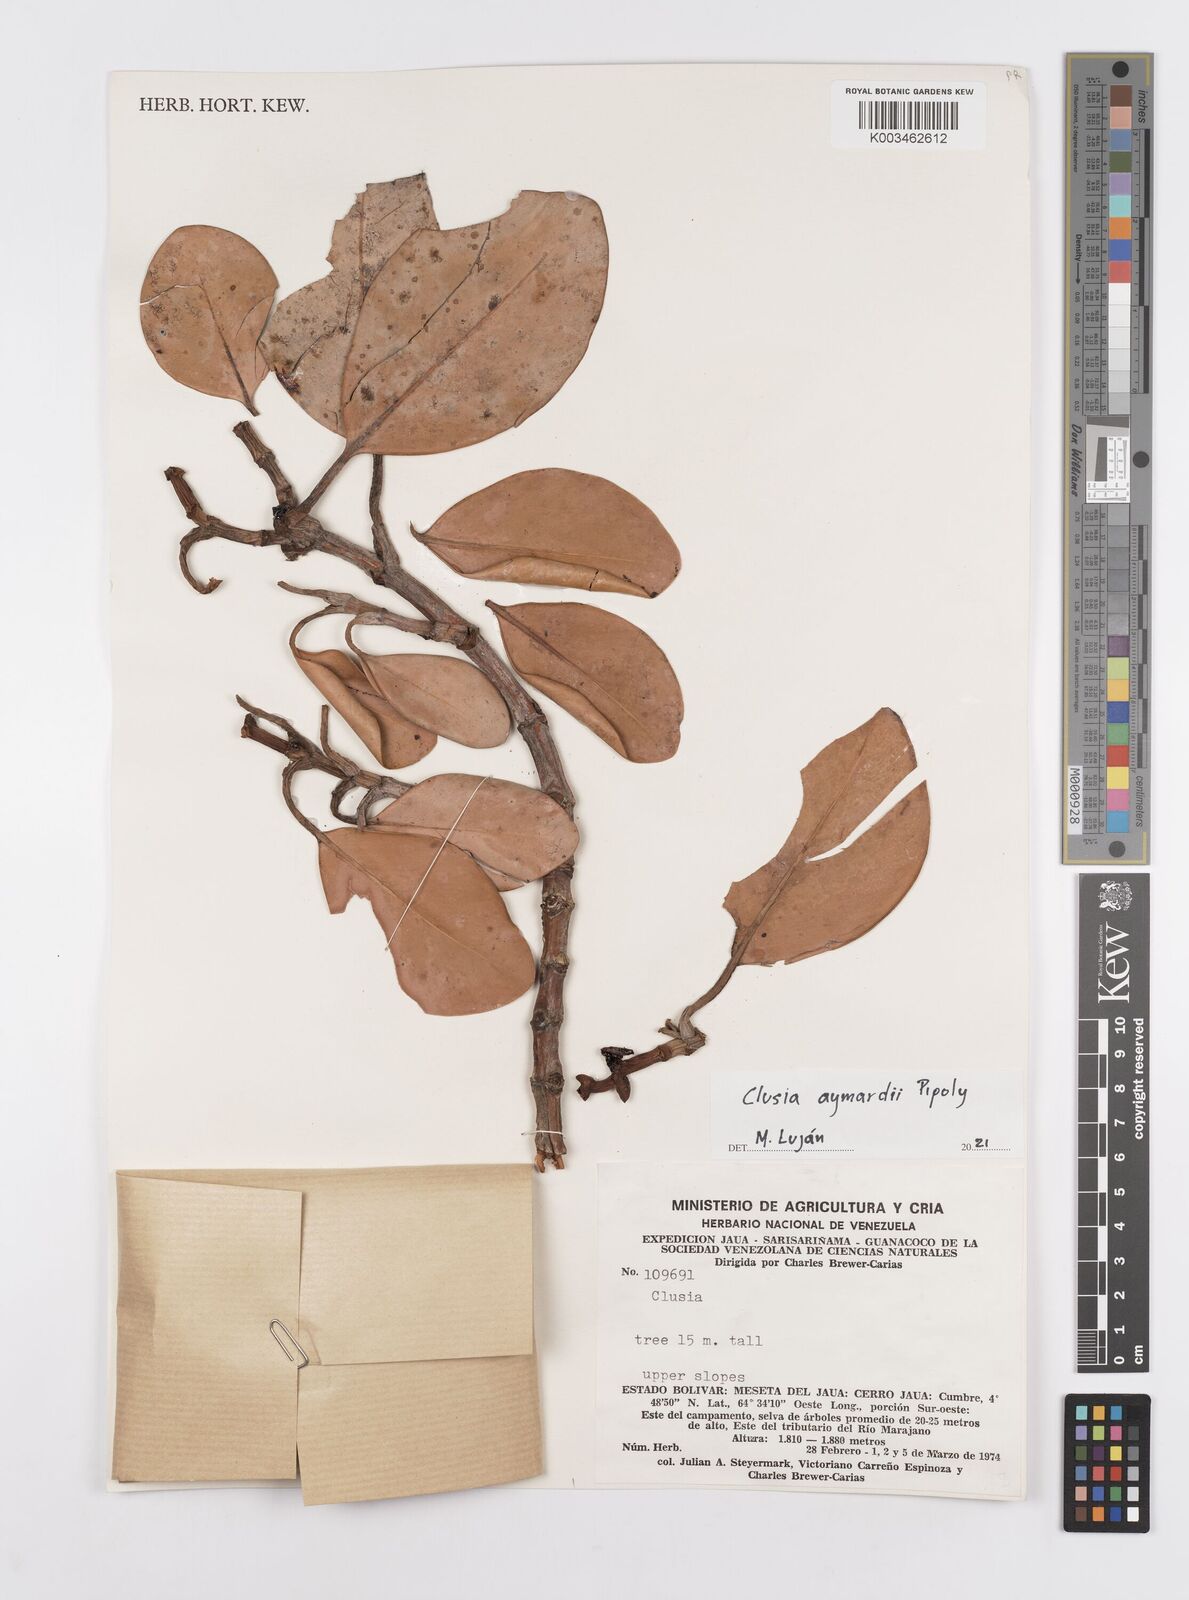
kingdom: Plantae
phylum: Tracheophyta
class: Magnoliopsida
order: Malpighiales
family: Clusiaceae
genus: Clusia
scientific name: Clusia aymardii
